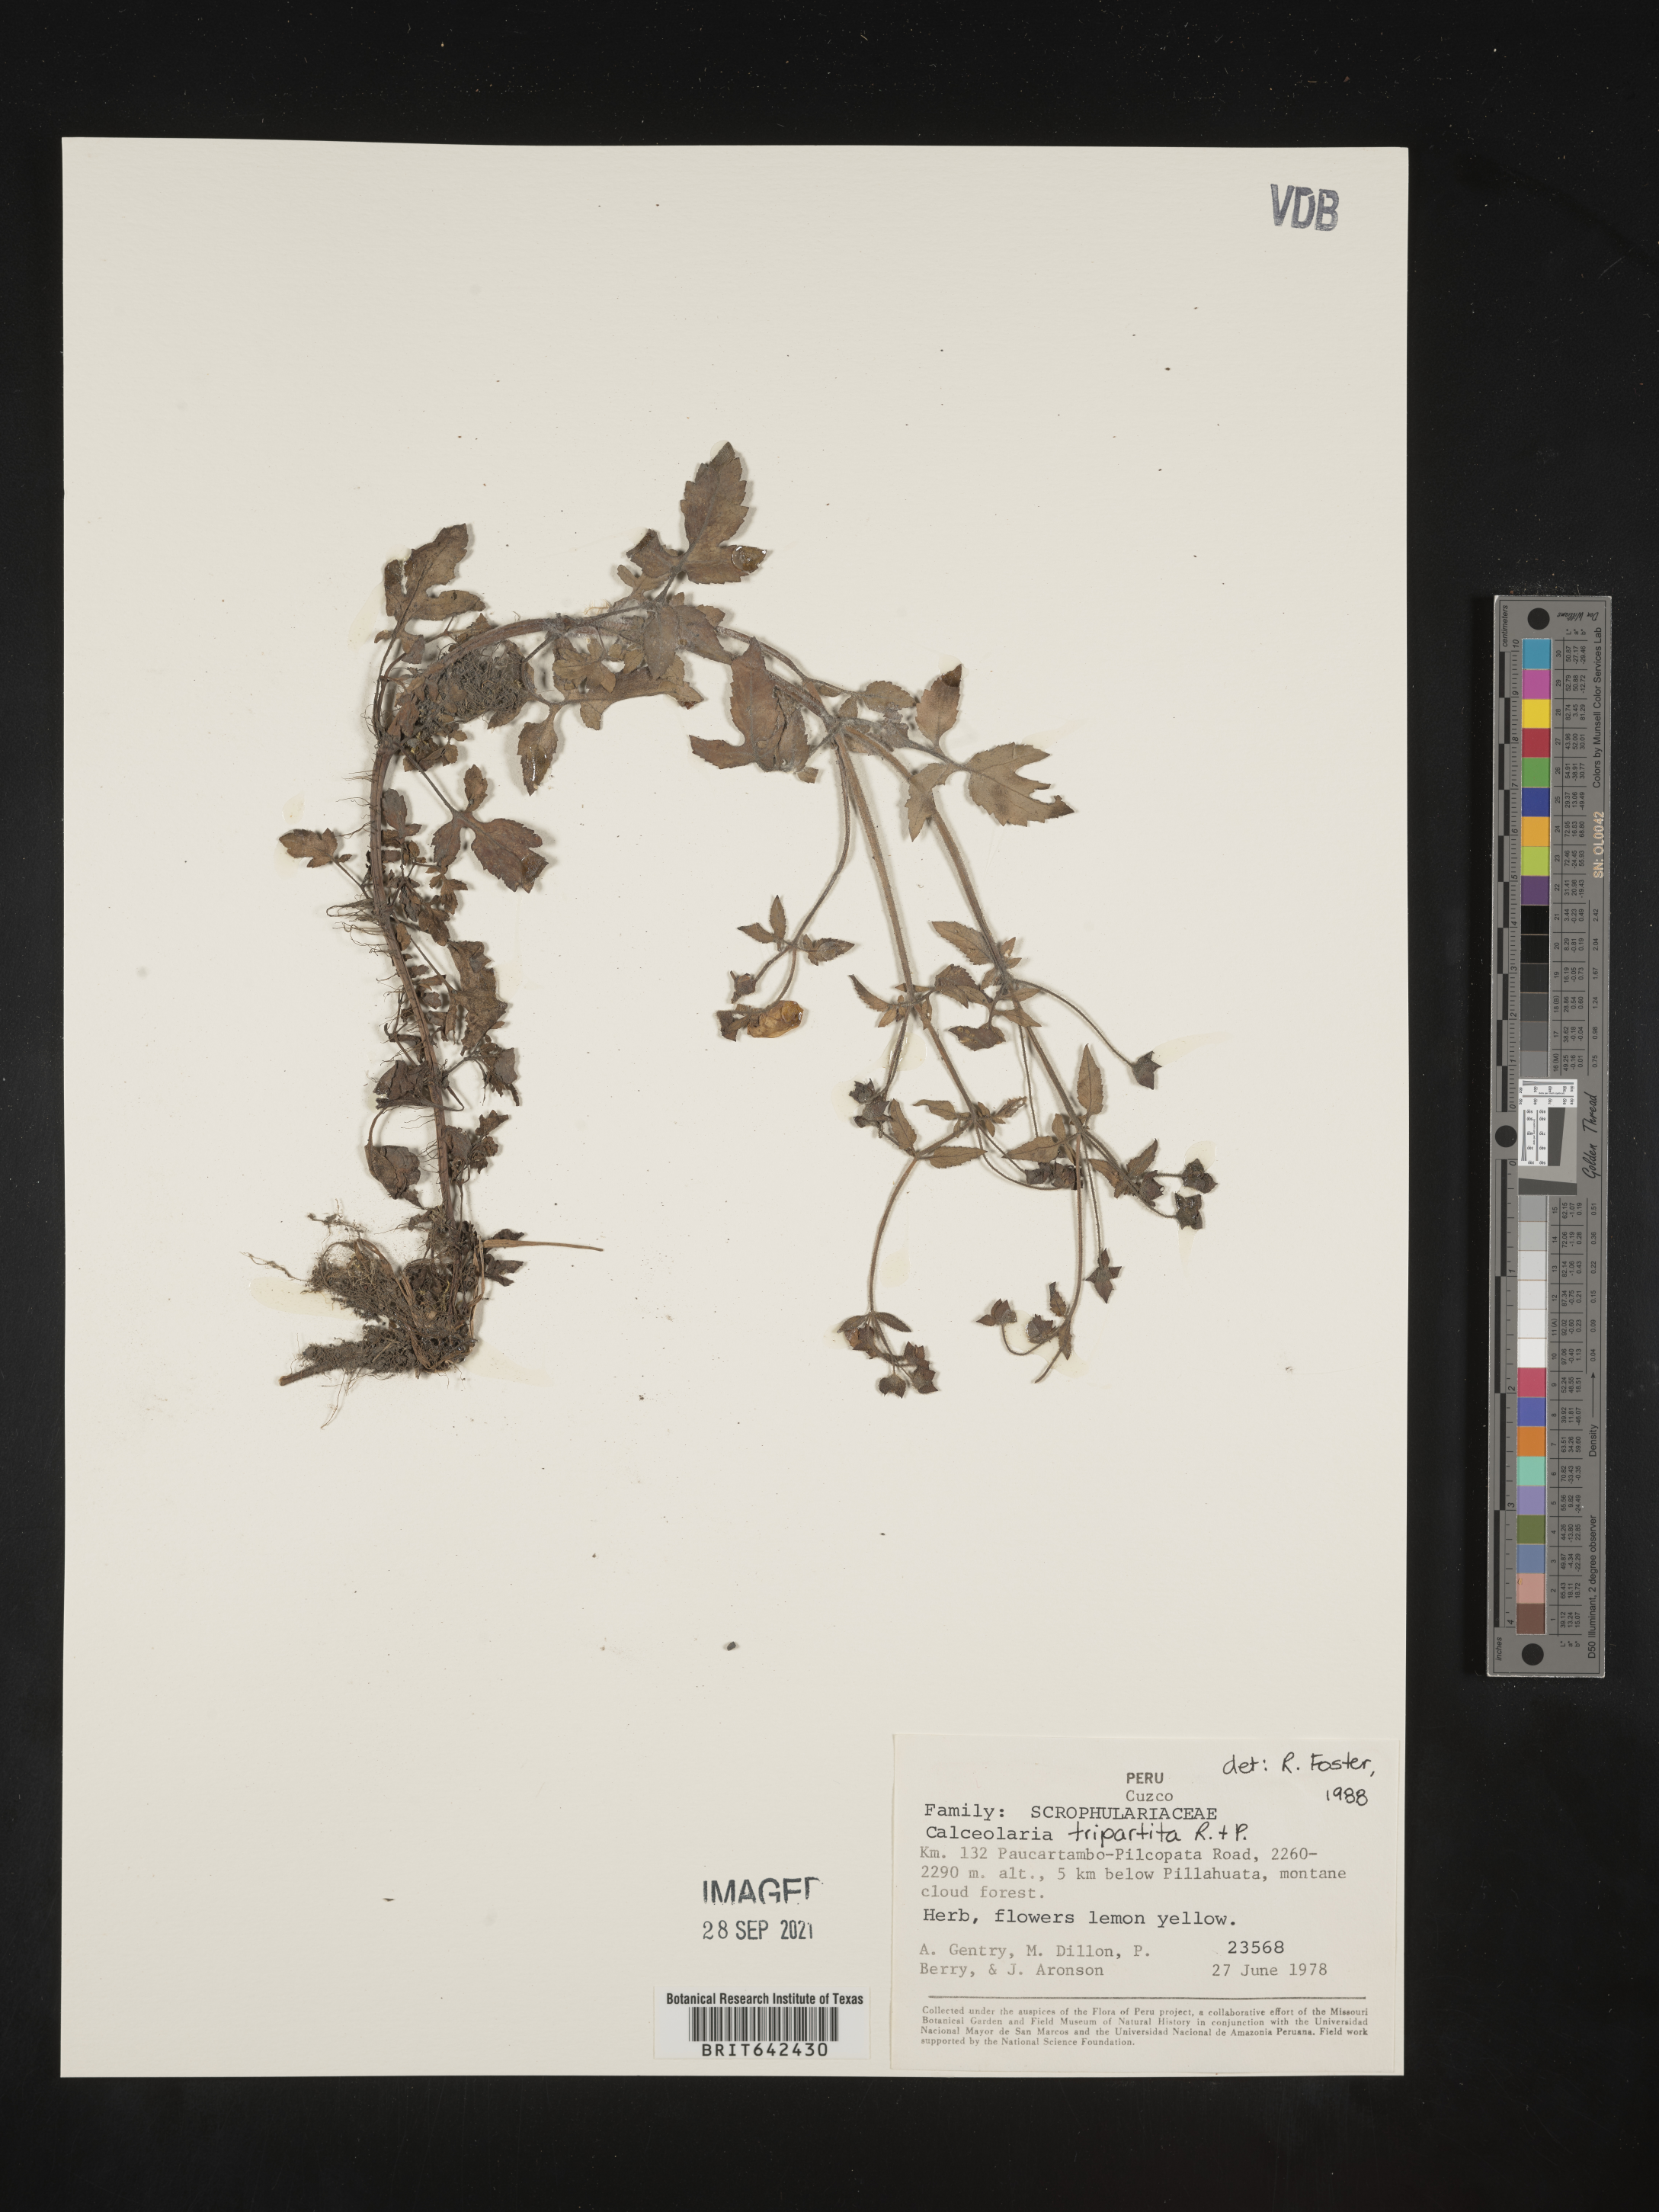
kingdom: Plantae
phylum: Tracheophyta
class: Magnoliopsida
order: Lamiales
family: Calceolariaceae
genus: Calceolaria
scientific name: Calceolaria tripartita
